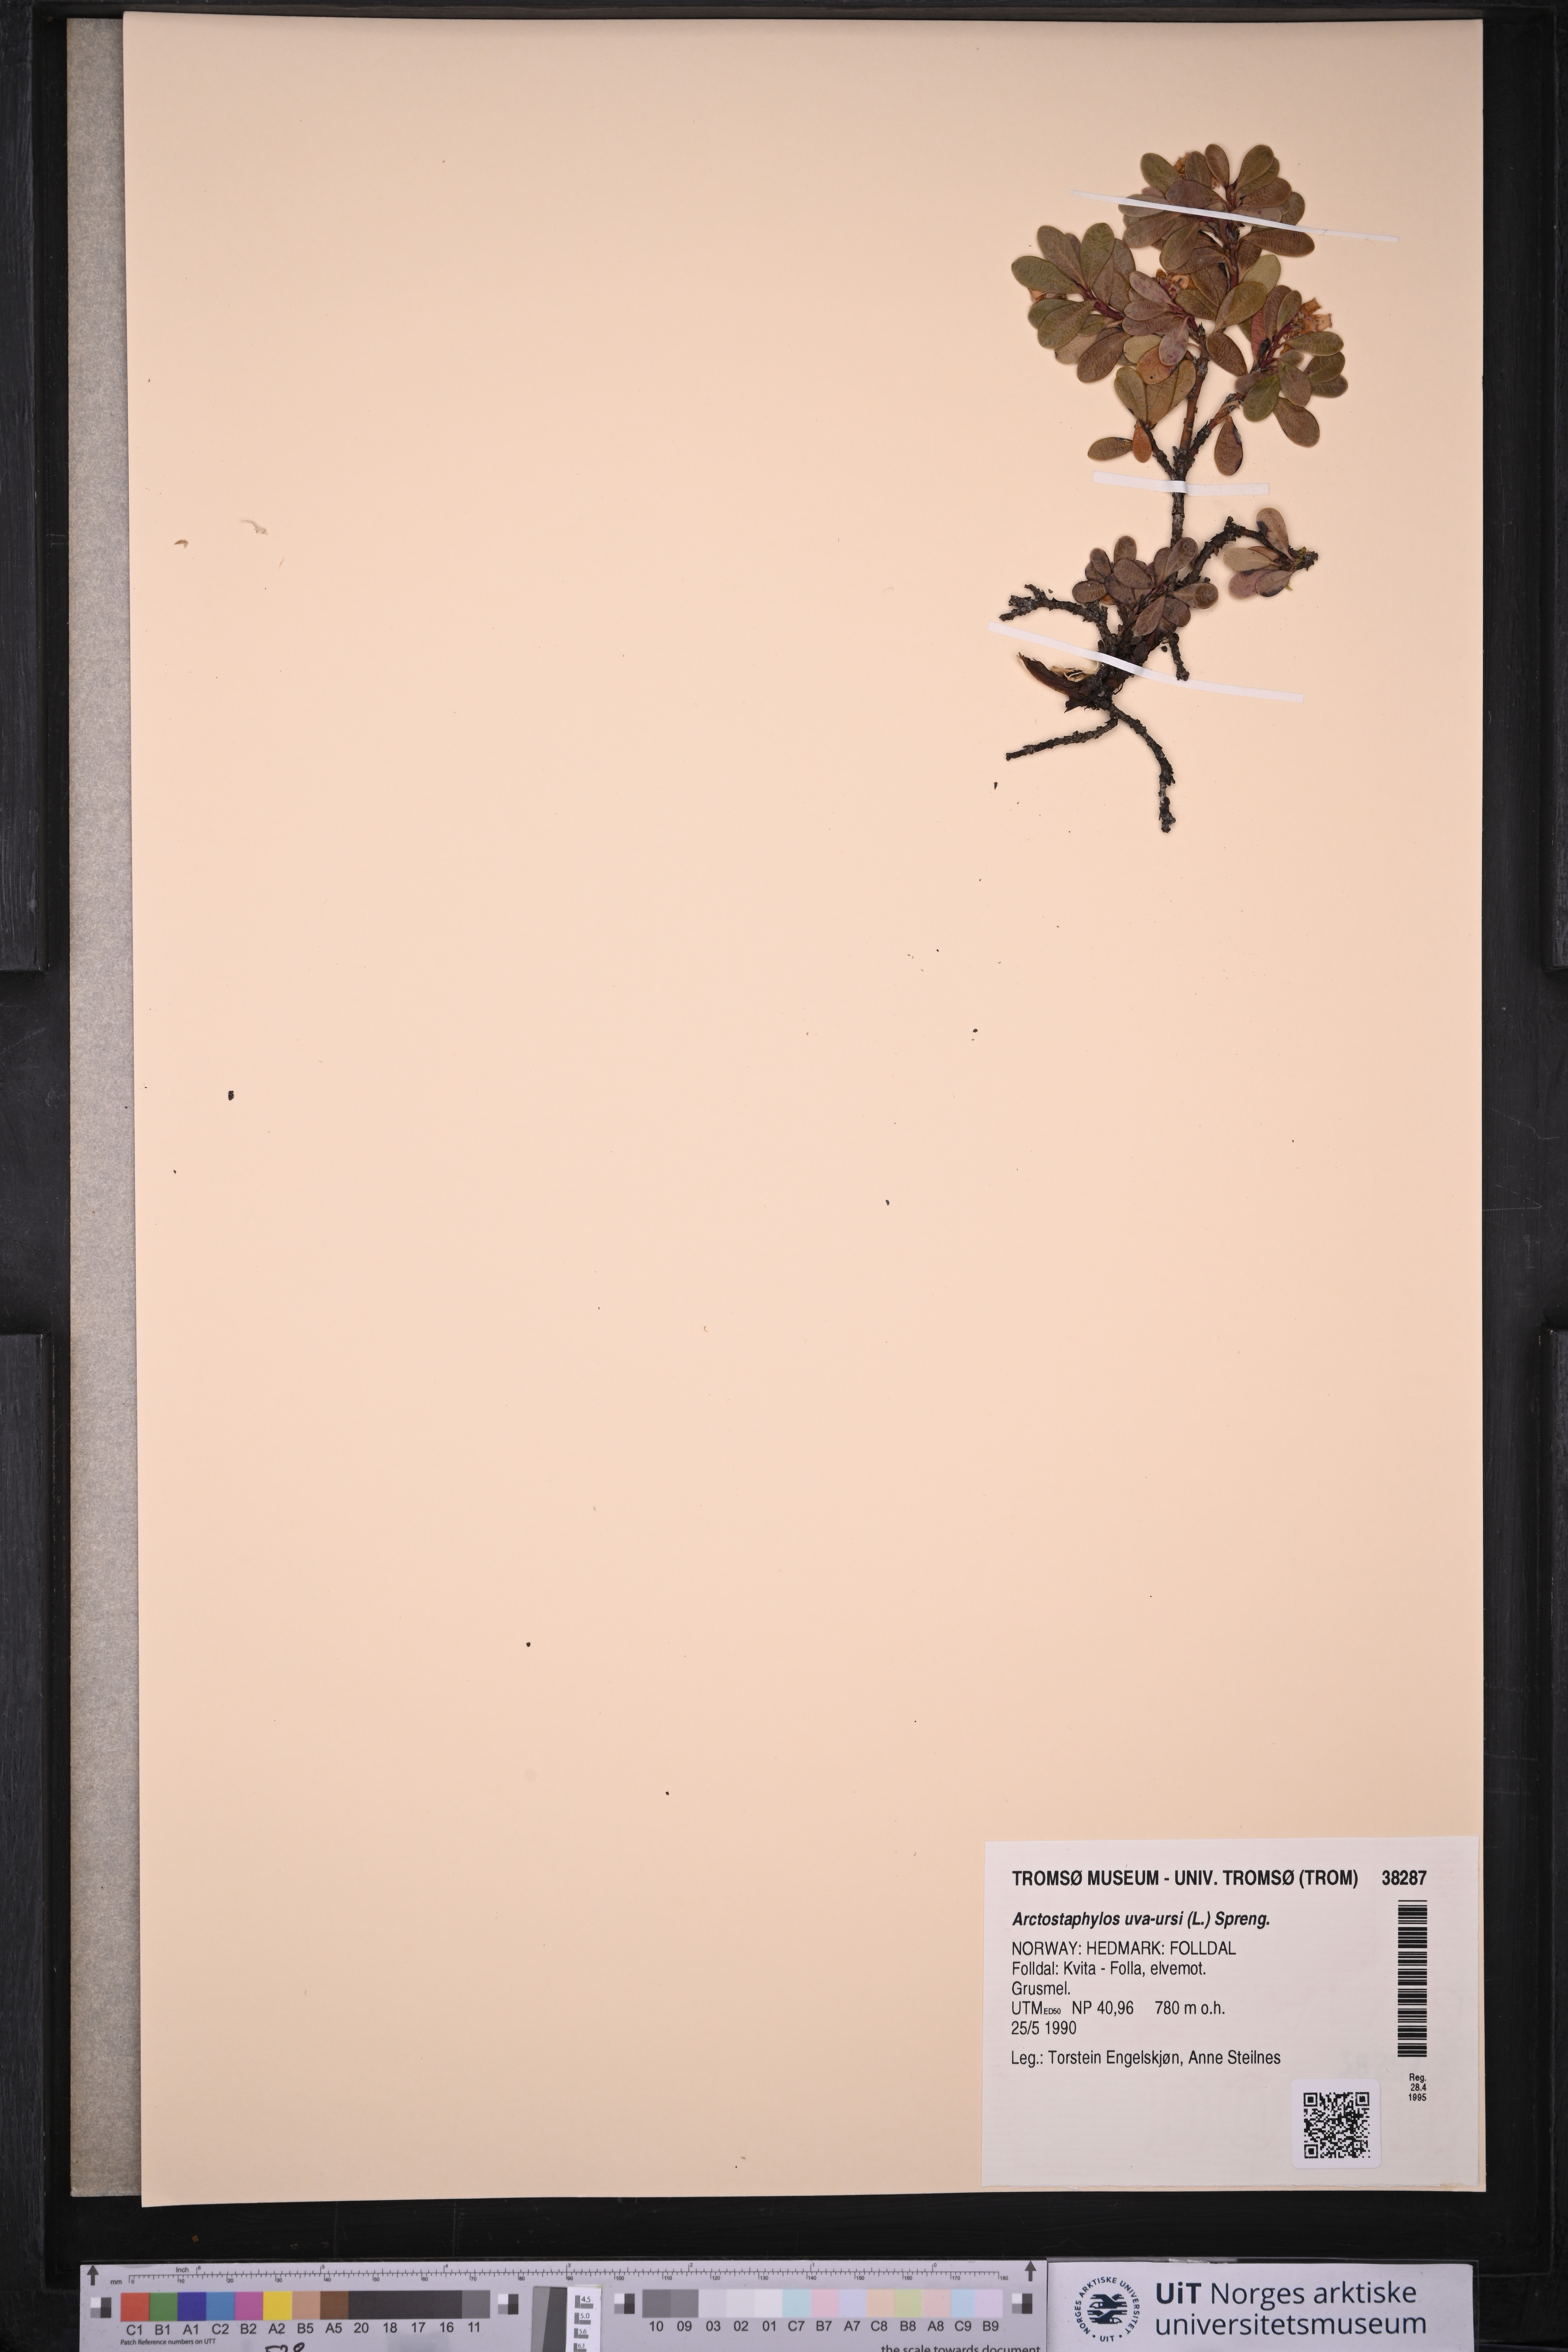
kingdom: Plantae
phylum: Tracheophyta
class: Magnoliopsida
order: Ericales
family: Ericaceae
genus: Arctostaphylos
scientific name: Arctostaphylos uva-ursi
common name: Bearberry
